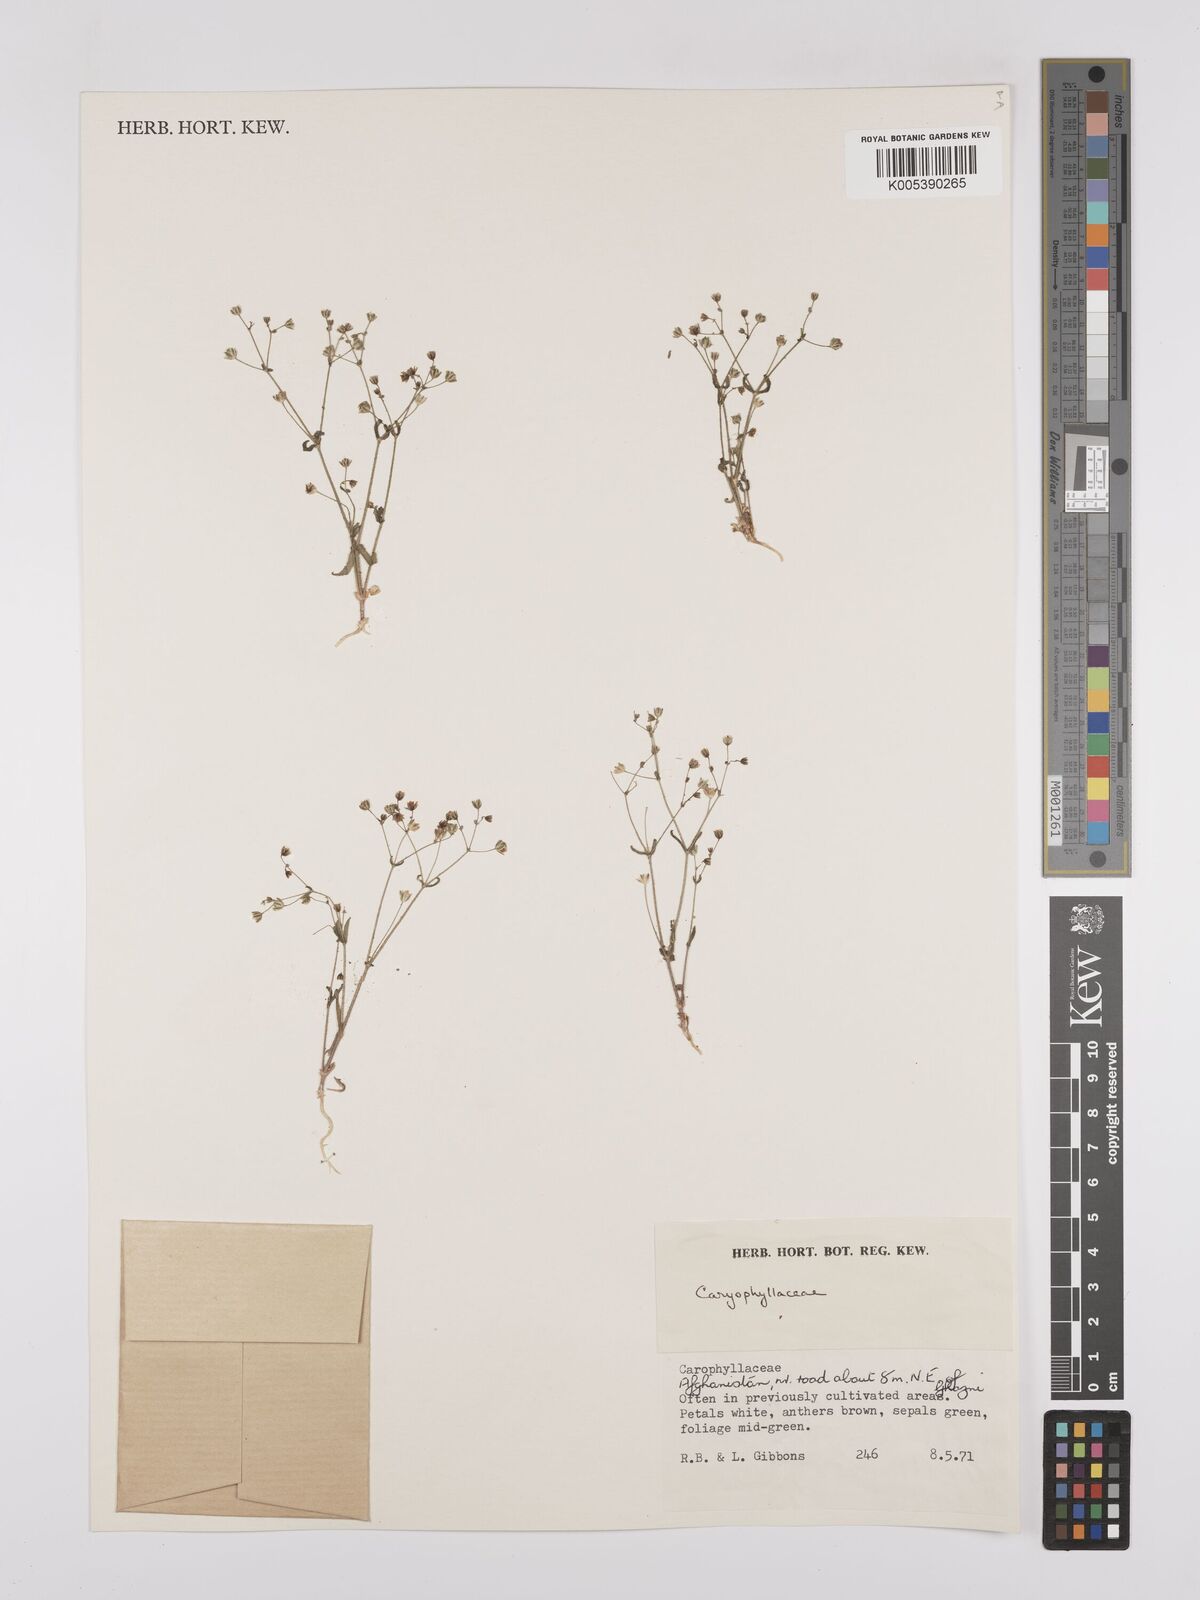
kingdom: Plantae
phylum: Tracheophyta
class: Magnoliopsida
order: Caryophyllales
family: Caryophyllaceae
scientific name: Caryophyllaceae
